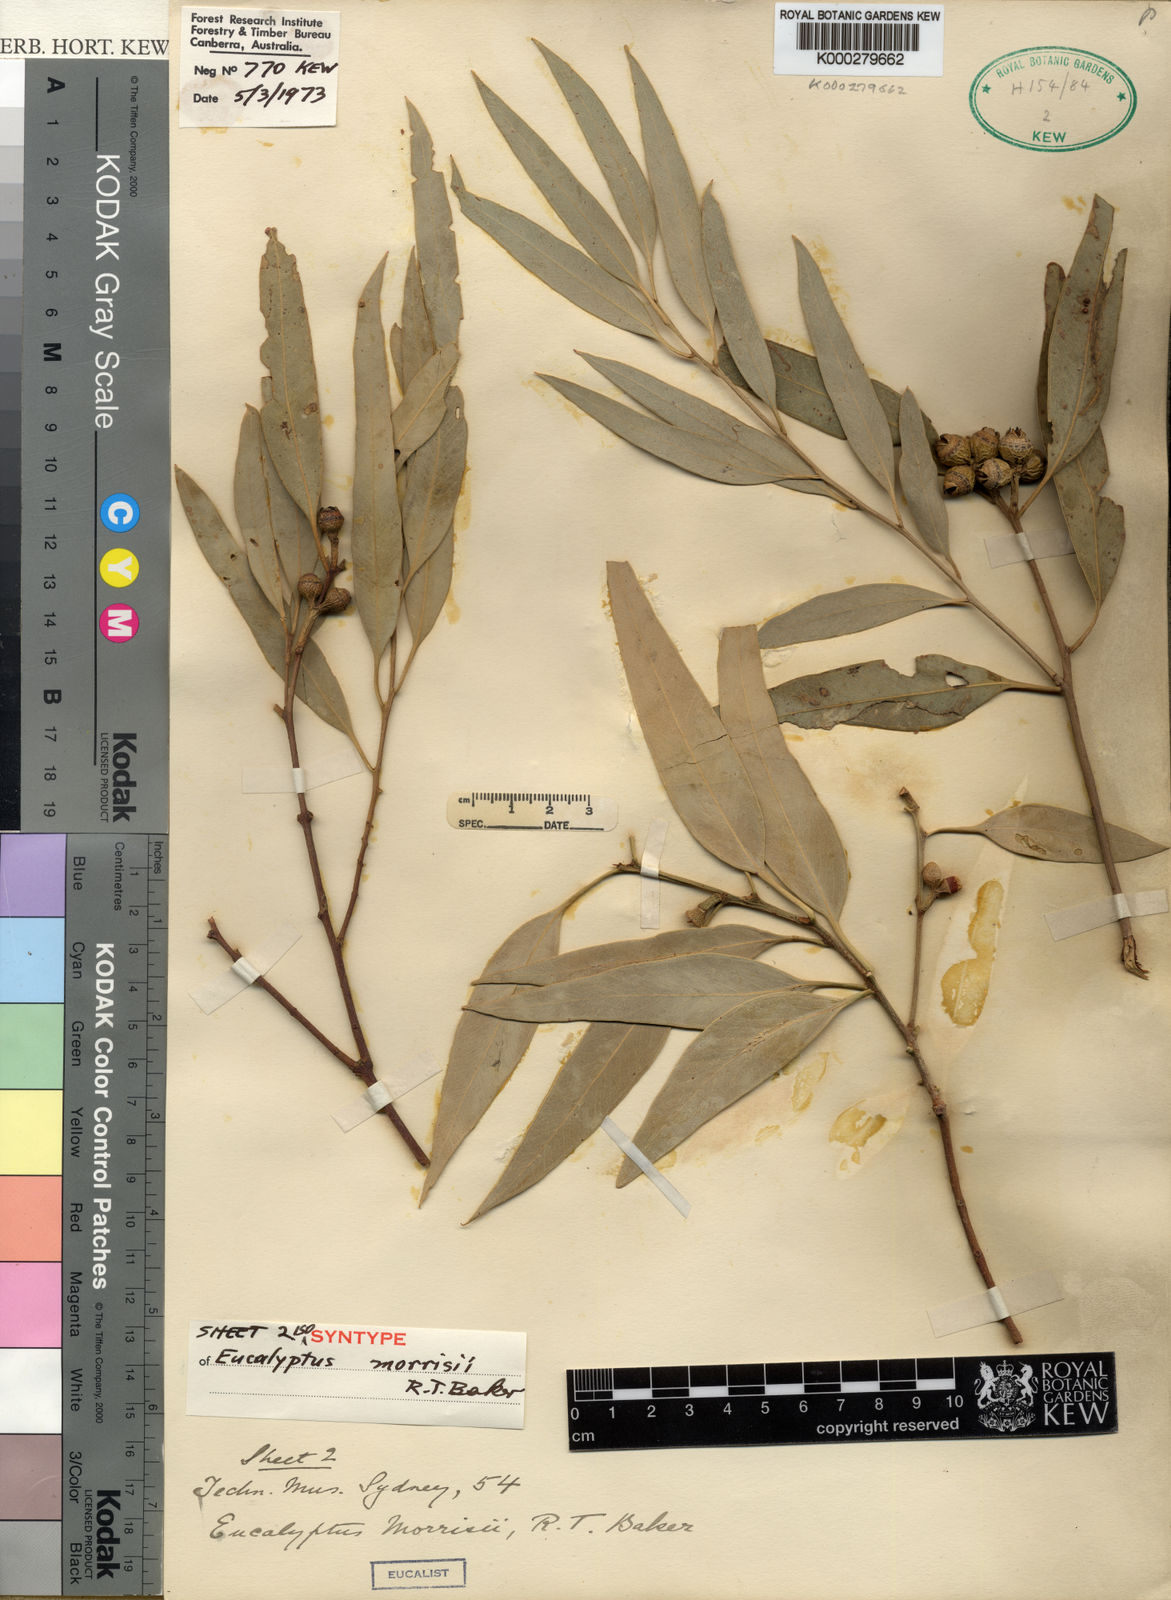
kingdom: Plantae
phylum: Tracheophyta
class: Magnoliopsida
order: Myrtales
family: Myrtaceae
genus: Eucalyptus
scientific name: Eucalyptus morrisii
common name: Grey mallee
